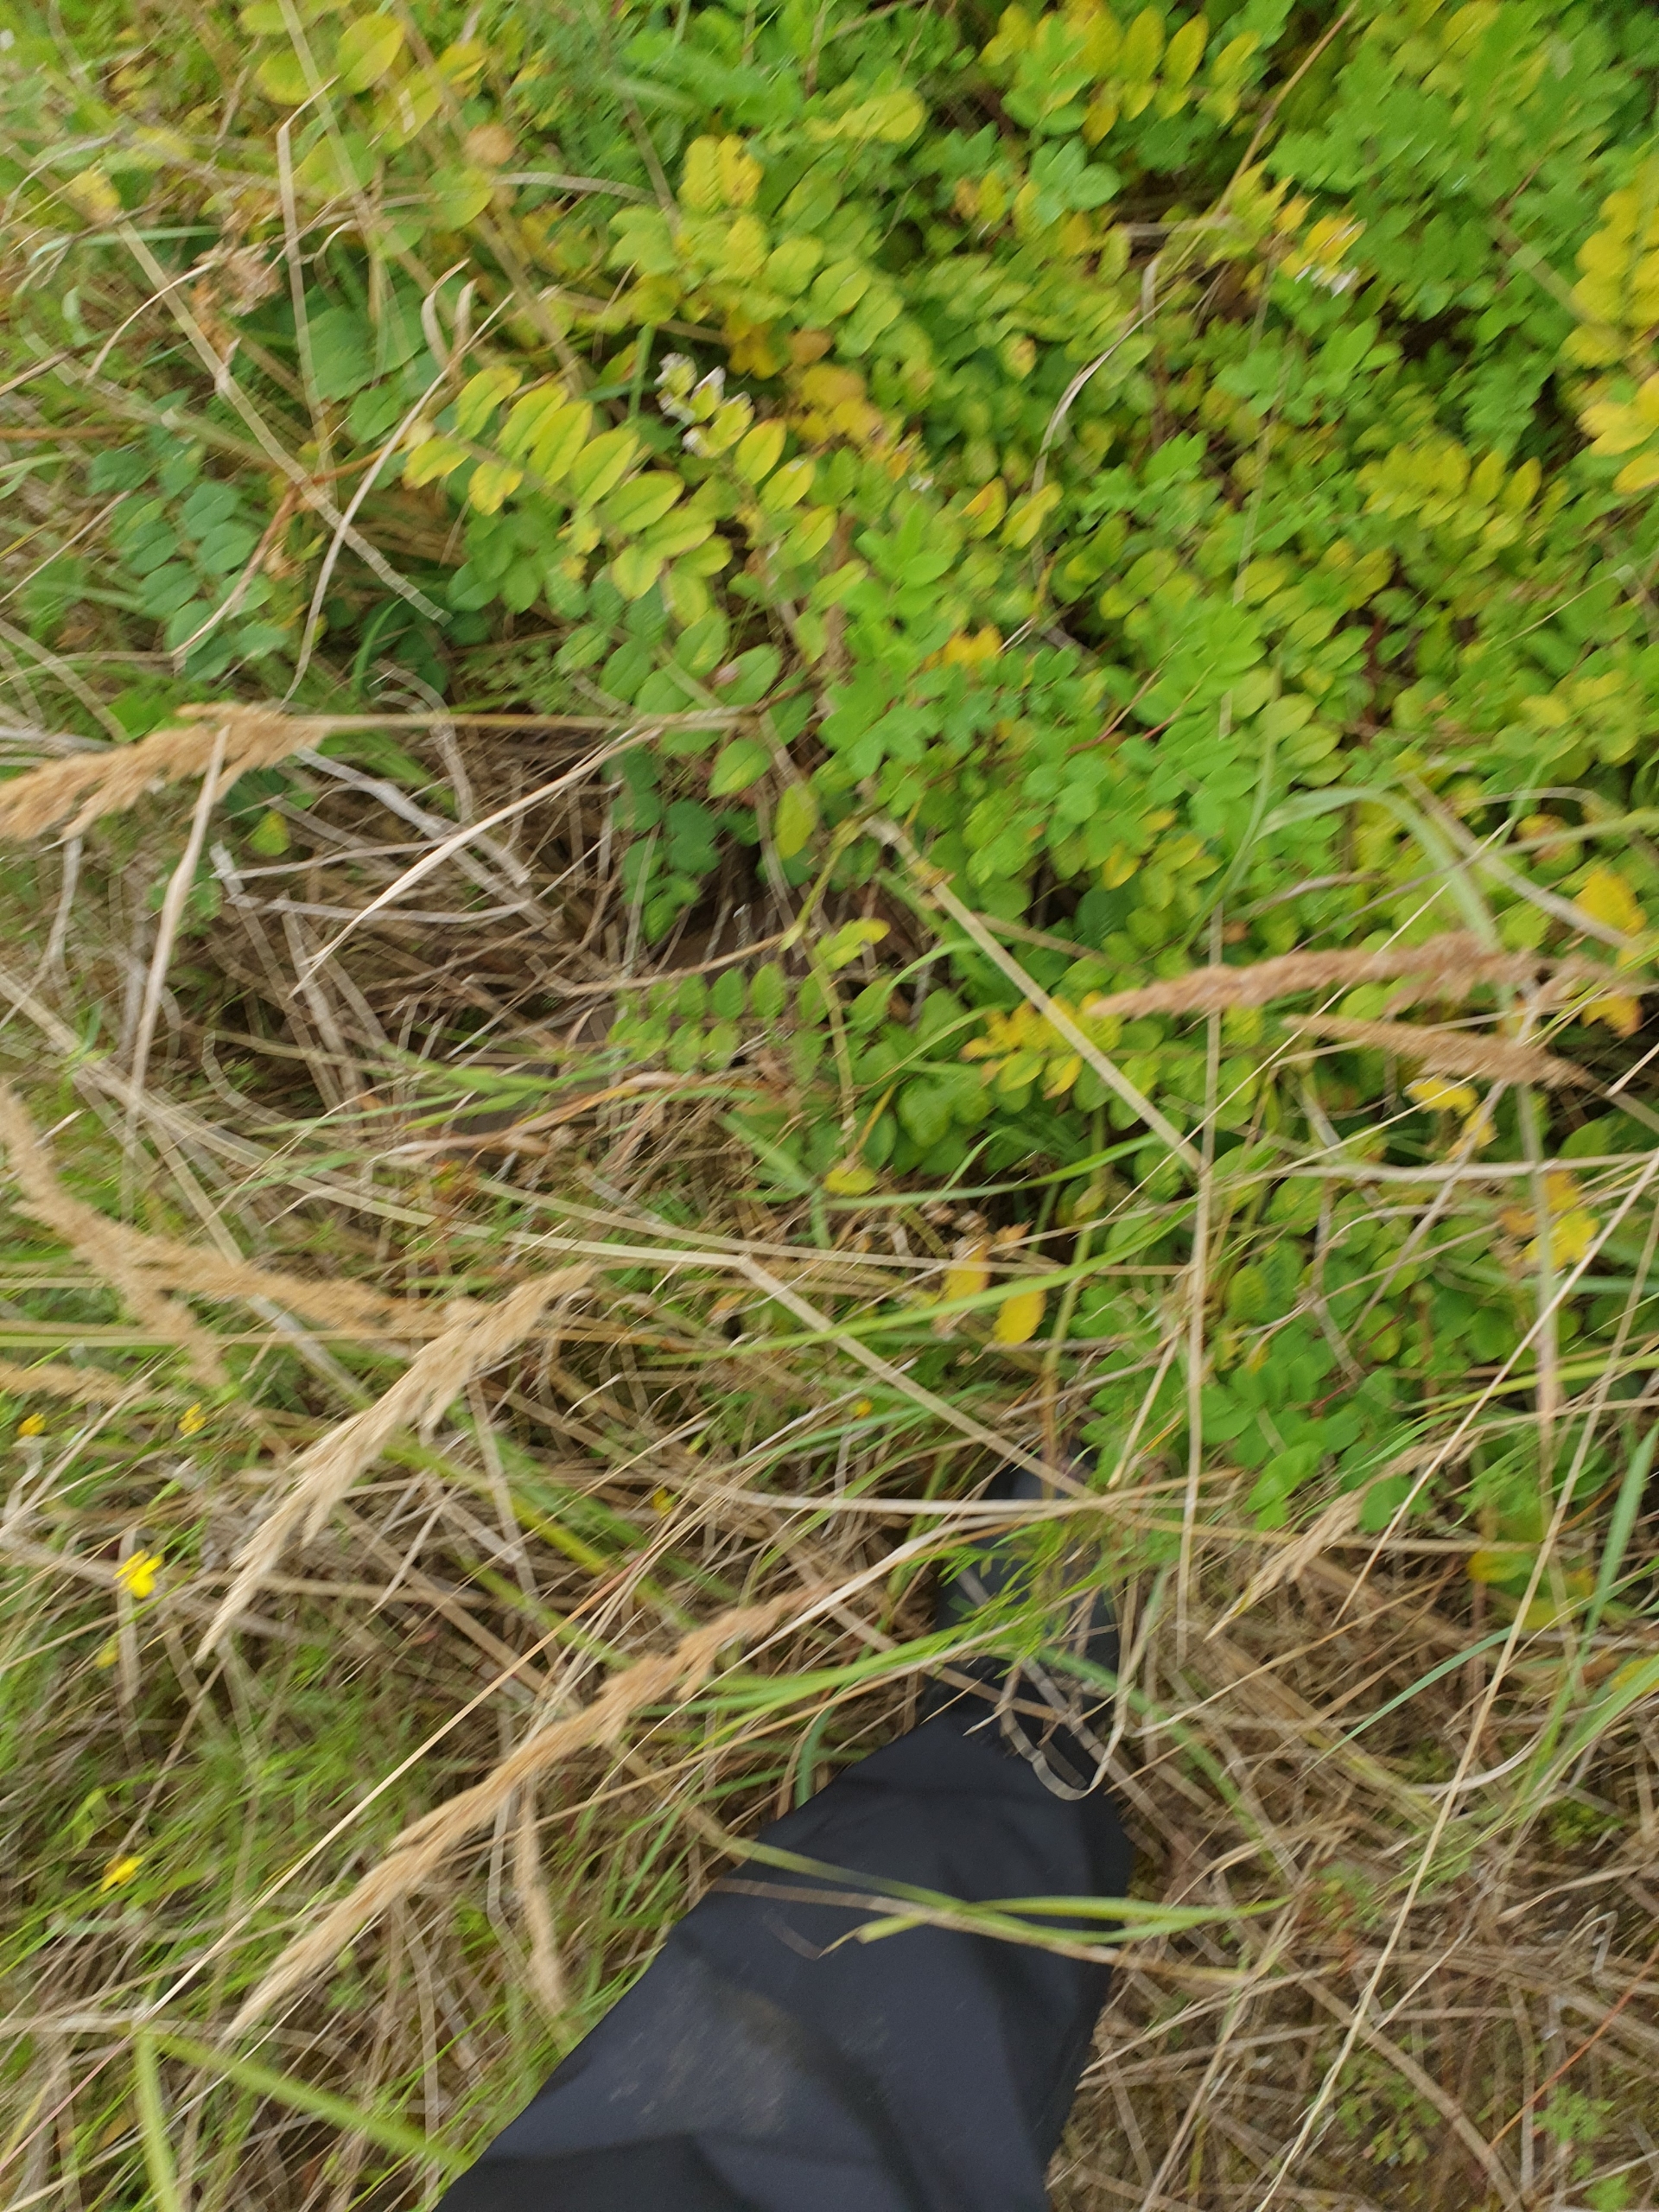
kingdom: Plantae
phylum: Tracheophyta
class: Magnoliopsida
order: Fabales
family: Fabaceae
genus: Astragalus
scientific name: Astragalus glycyphyllos
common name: Sød astragel
